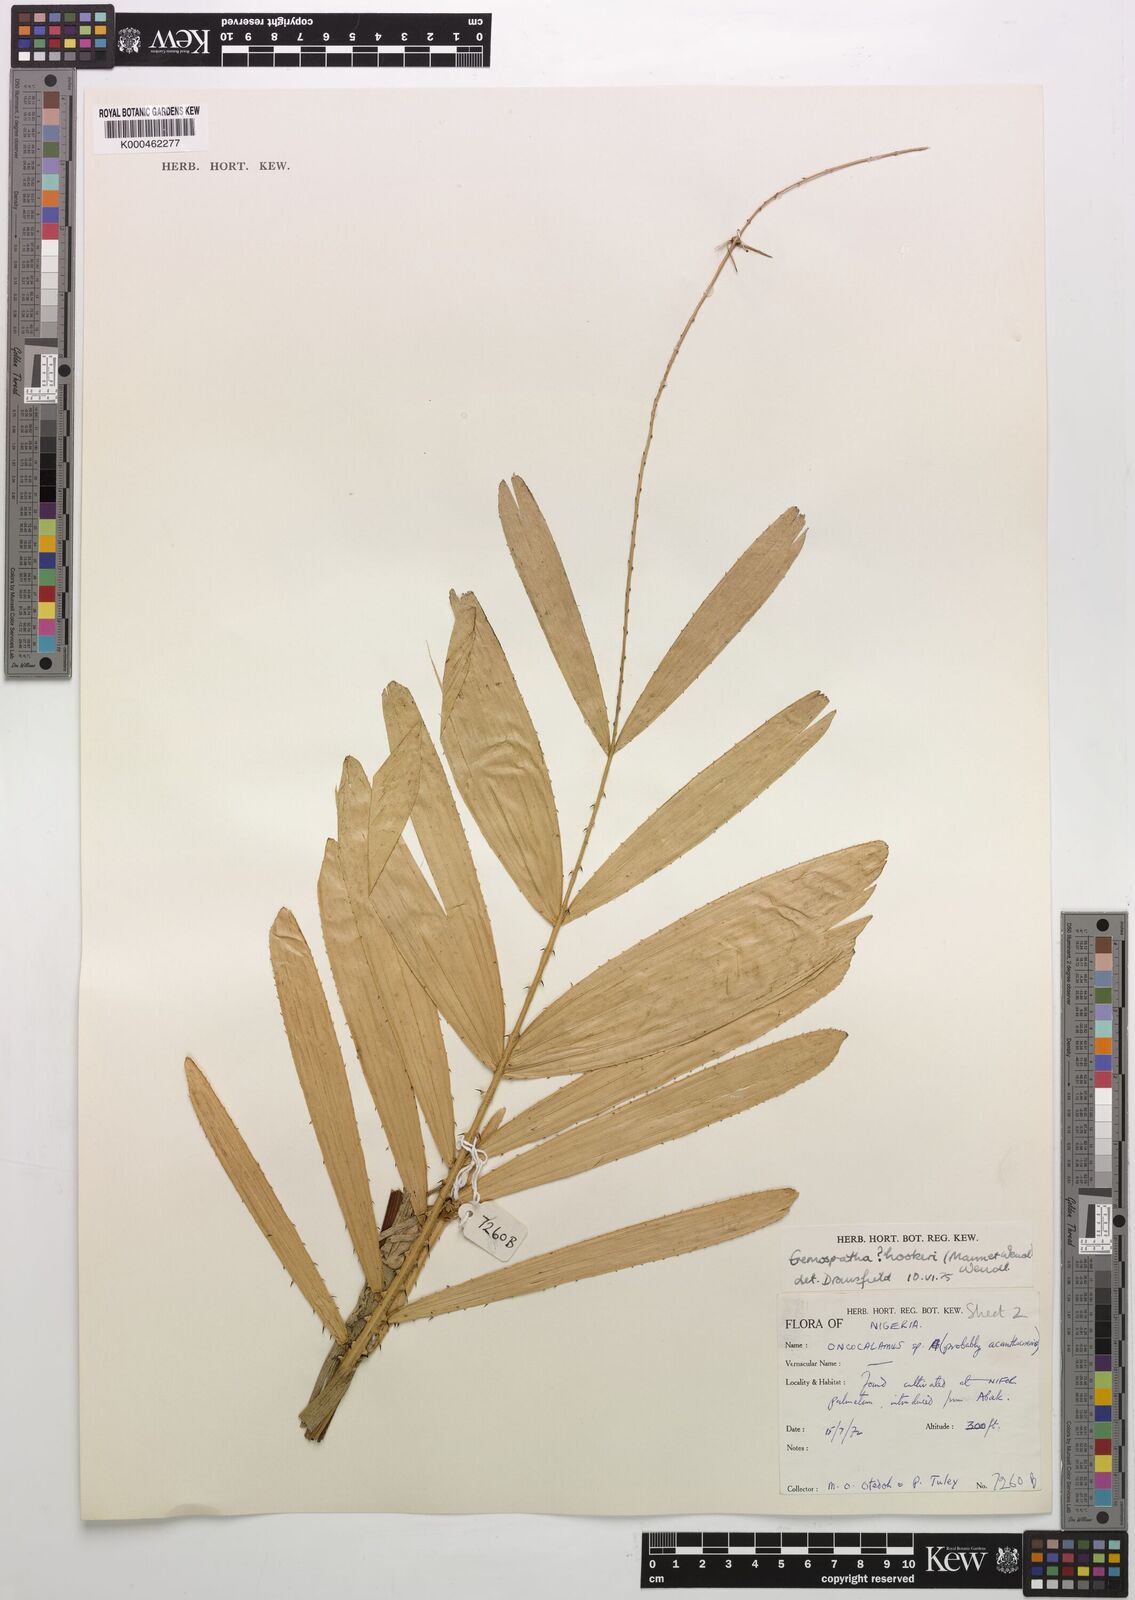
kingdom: Plantae
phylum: Tracheophyta
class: Liliopsida
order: Arecales
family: Arecaceae
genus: Eremospatha
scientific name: Eremospatha hookeri
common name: Rattan
